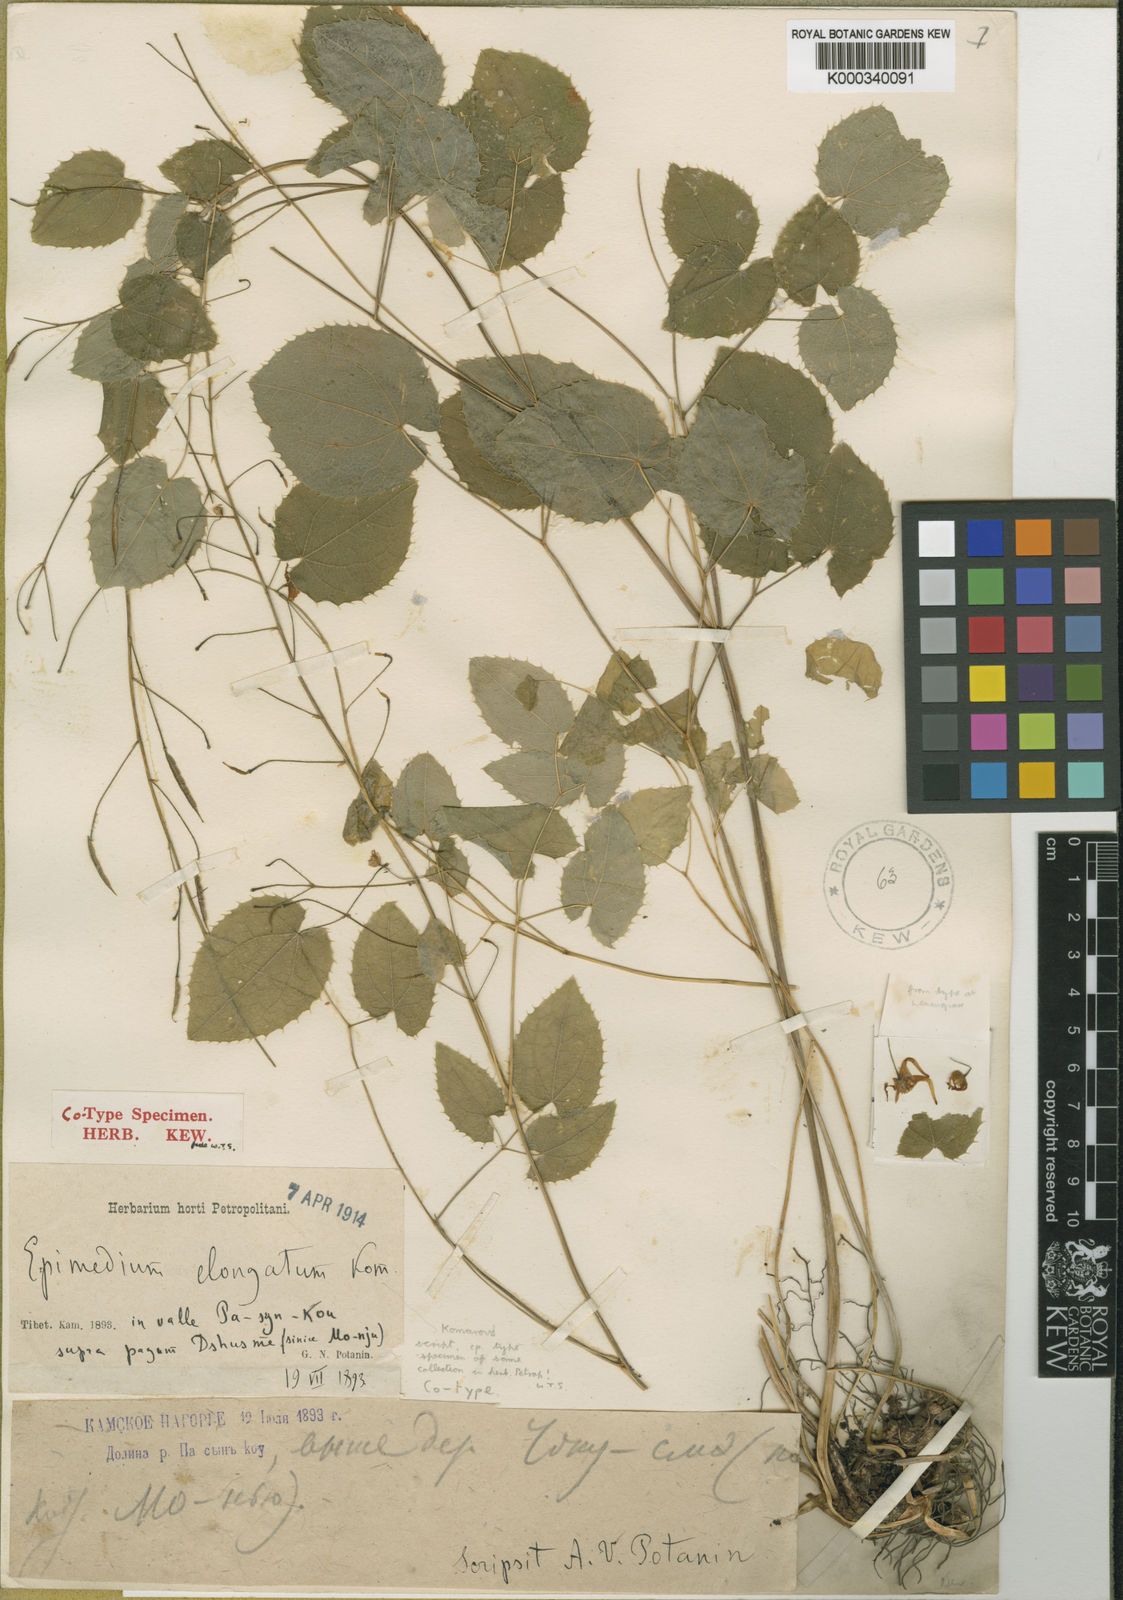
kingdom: Plantae
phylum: Tracheophyta
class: Magnoliopsida
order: Ranunculales
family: Berberidaceae
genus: Epimedium
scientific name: Epimedium elongatum
